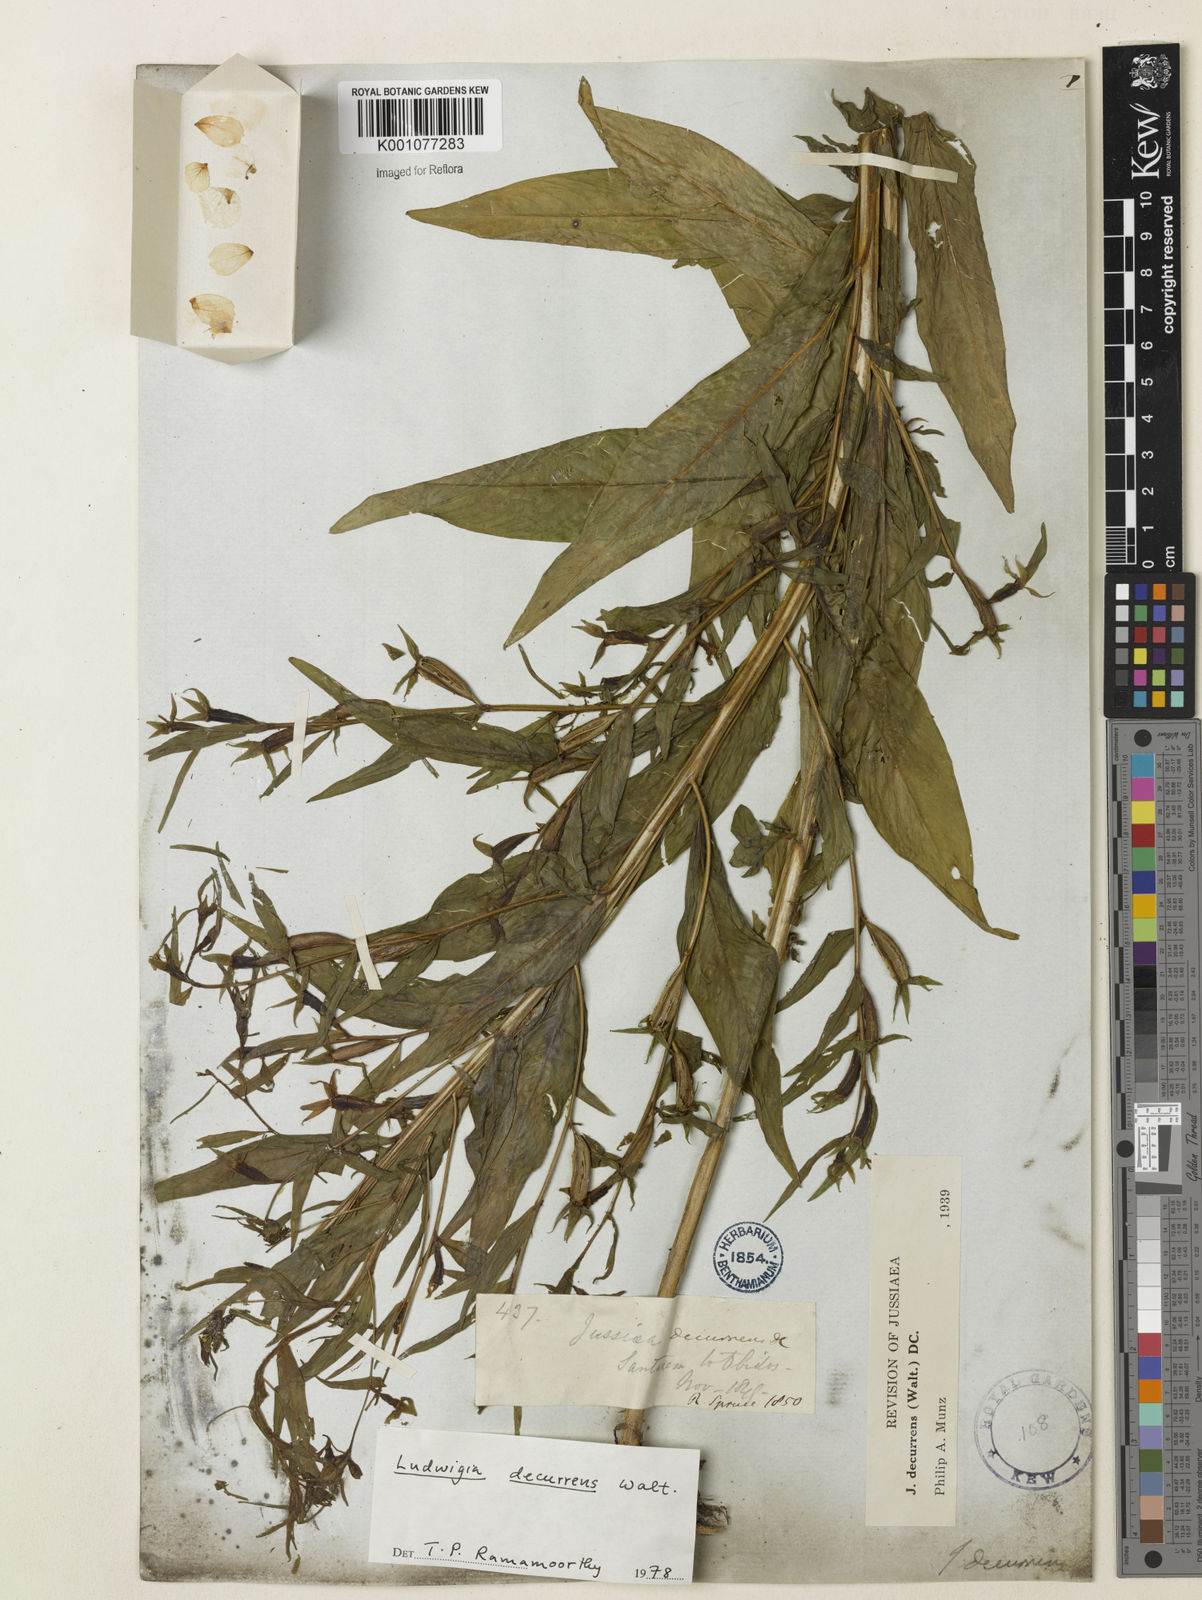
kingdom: Plantae
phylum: Tracheophyta
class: Magnoliopsida
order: Myrtales
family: Onagraceae
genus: Ludwigia
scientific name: Ludwigia decurrens
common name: Winged water-primrose
